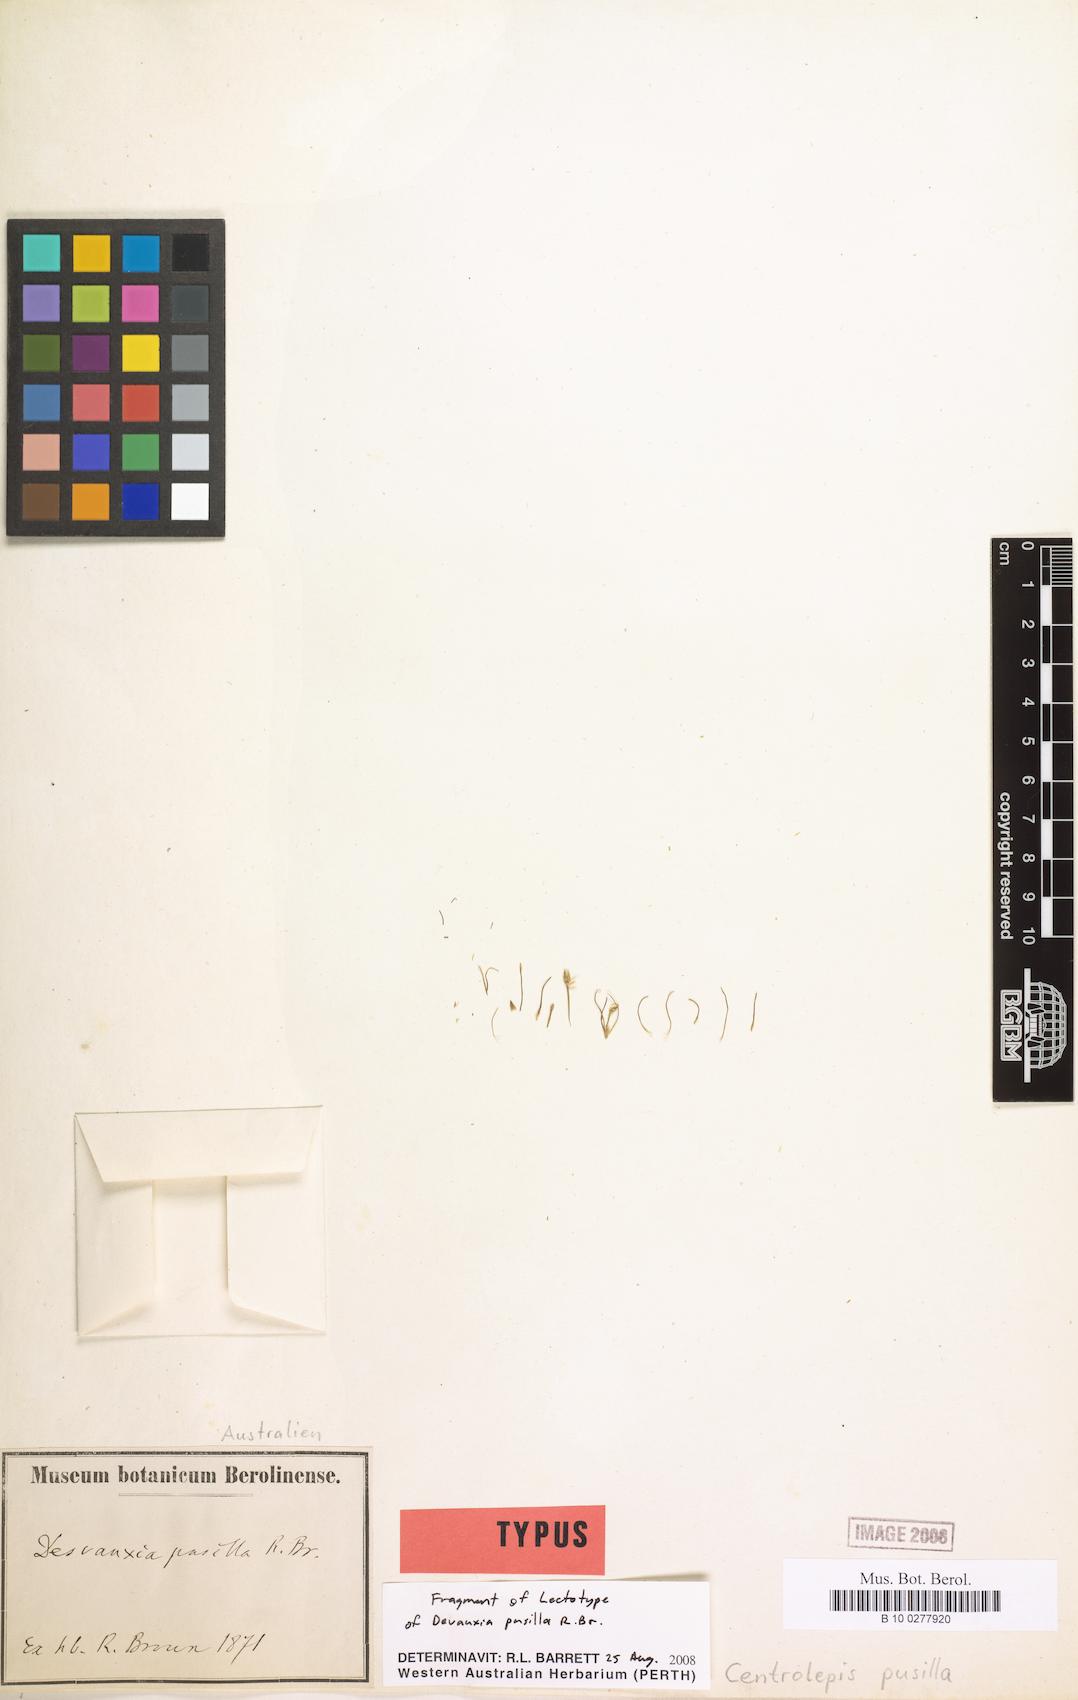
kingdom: Plantae
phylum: Tracheophyta
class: Liliopsida
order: Poales
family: Restionaceae
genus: Centrolepis
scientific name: Centrolepis banksii
